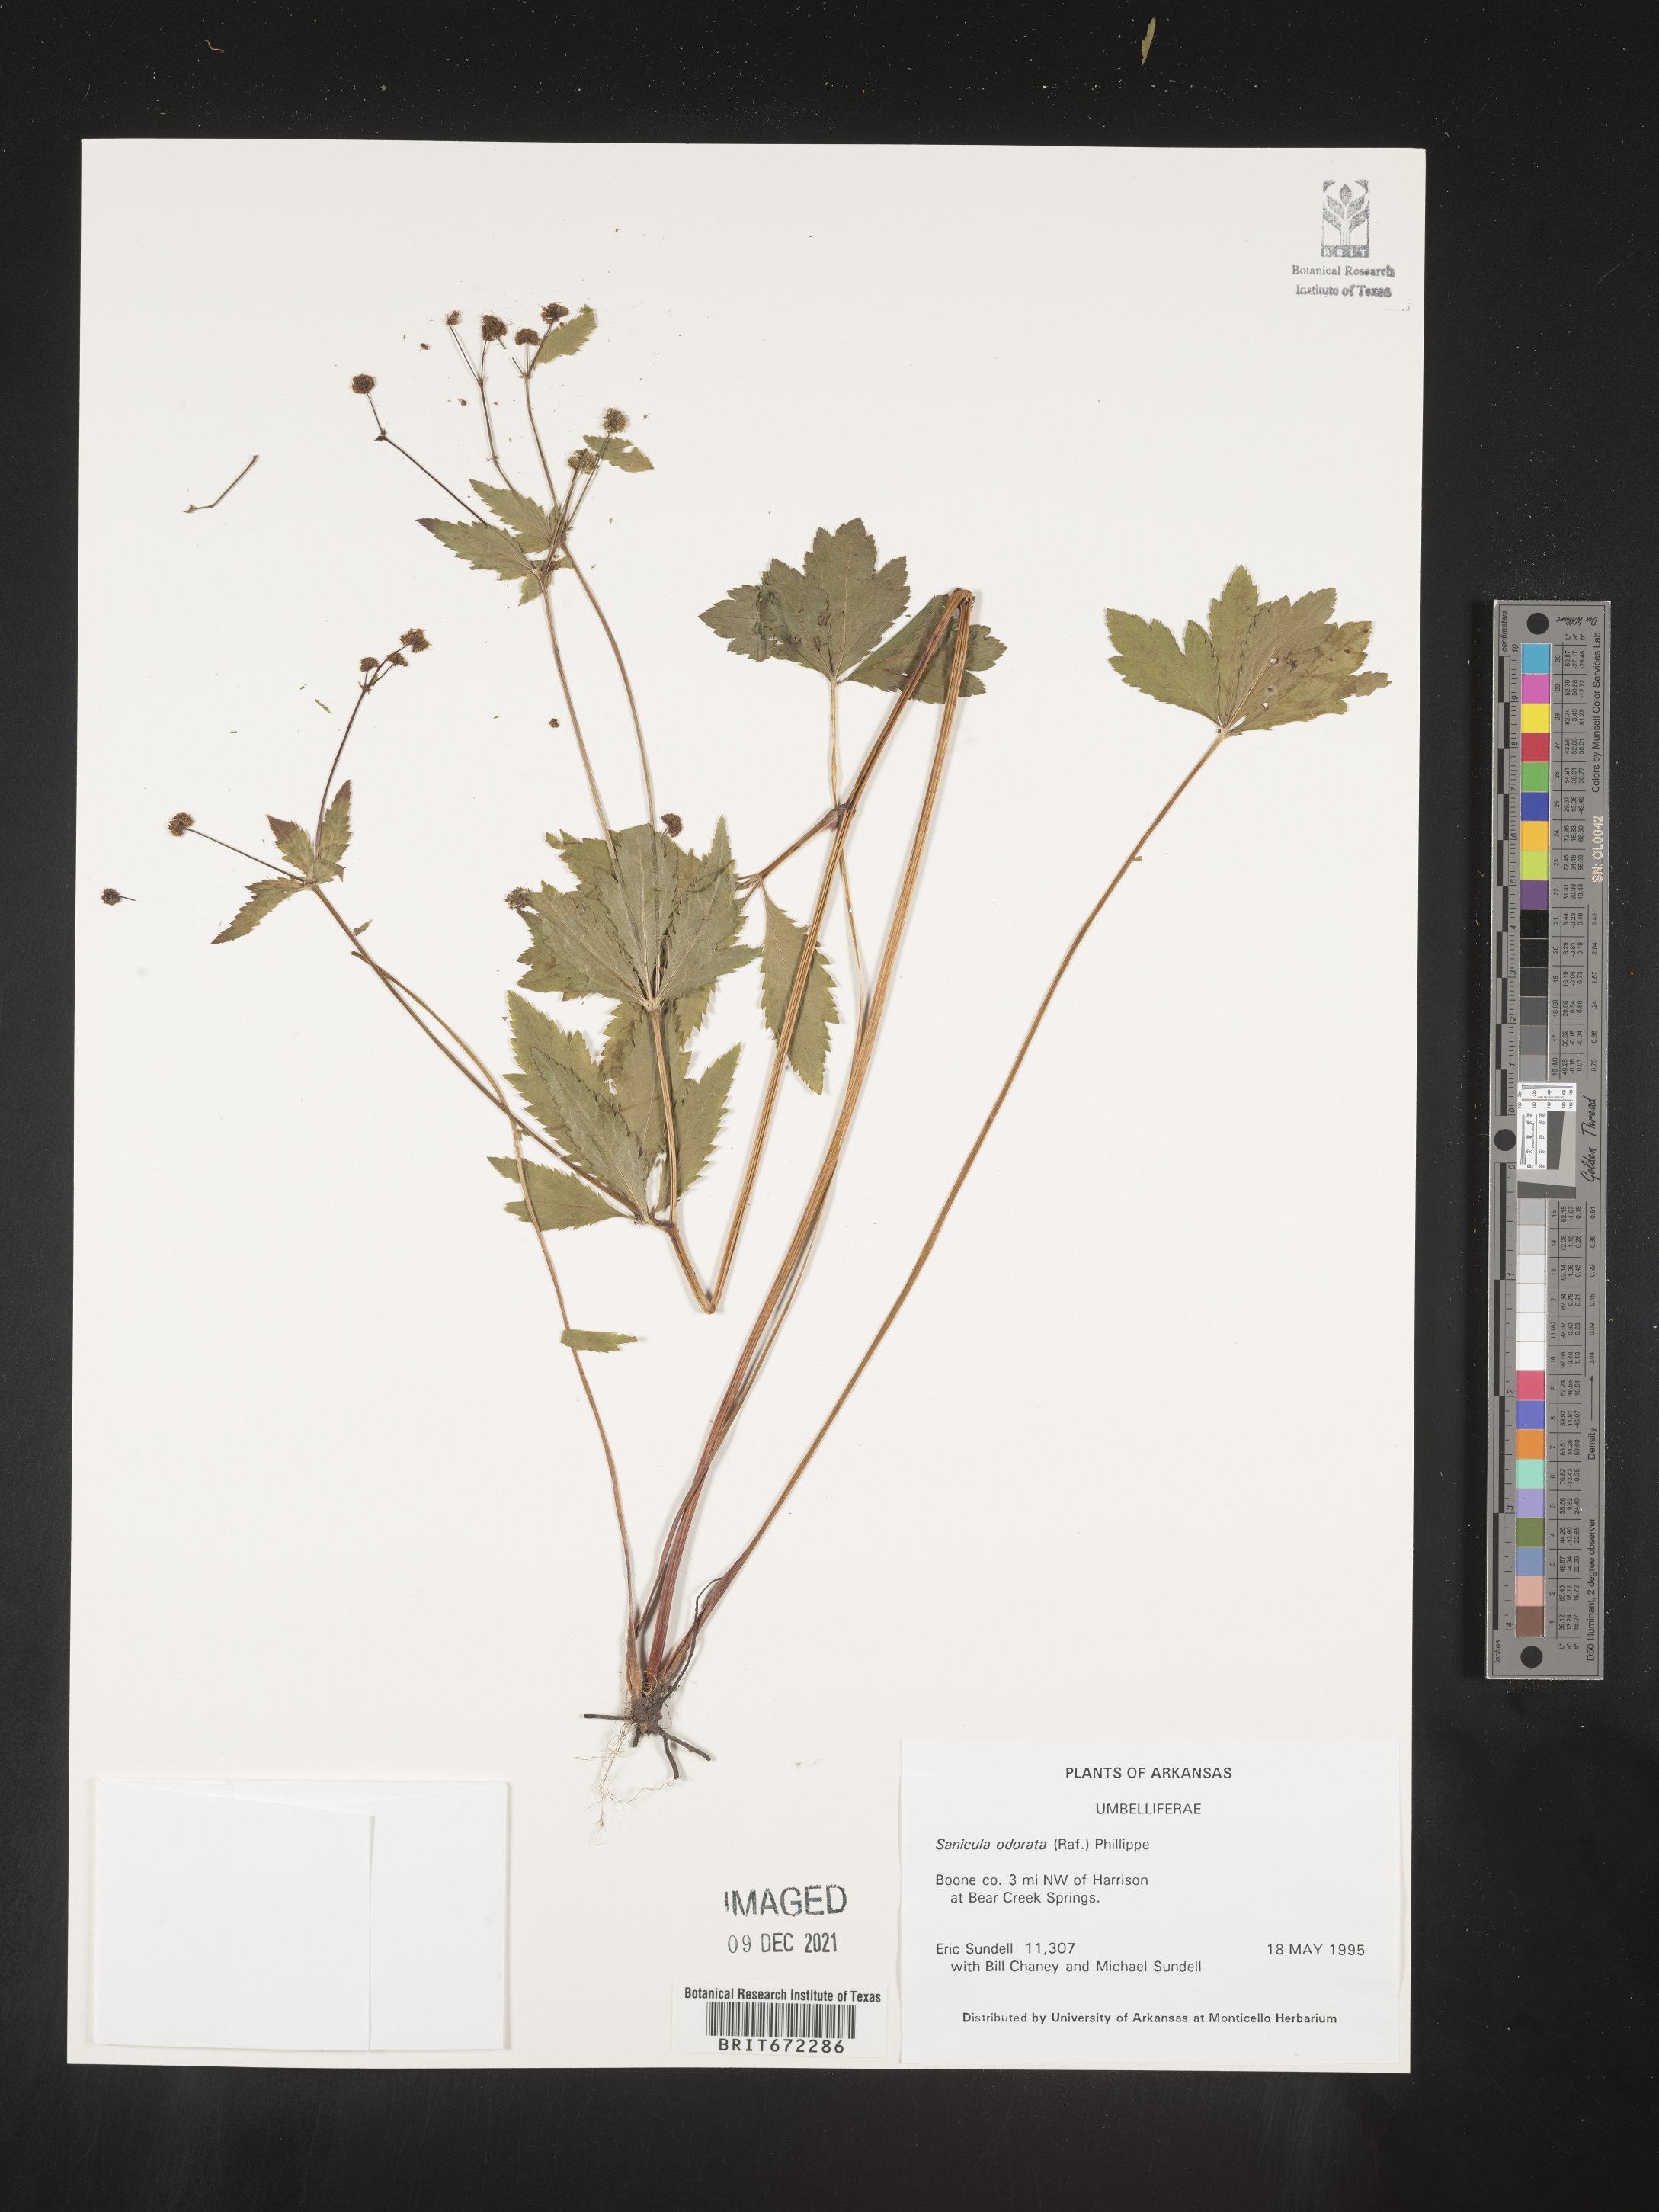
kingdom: Plantae
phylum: Tracheophyta
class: Magnoliopsida
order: Apiales
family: Apiaceae
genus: Sanicula
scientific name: Sanicula
